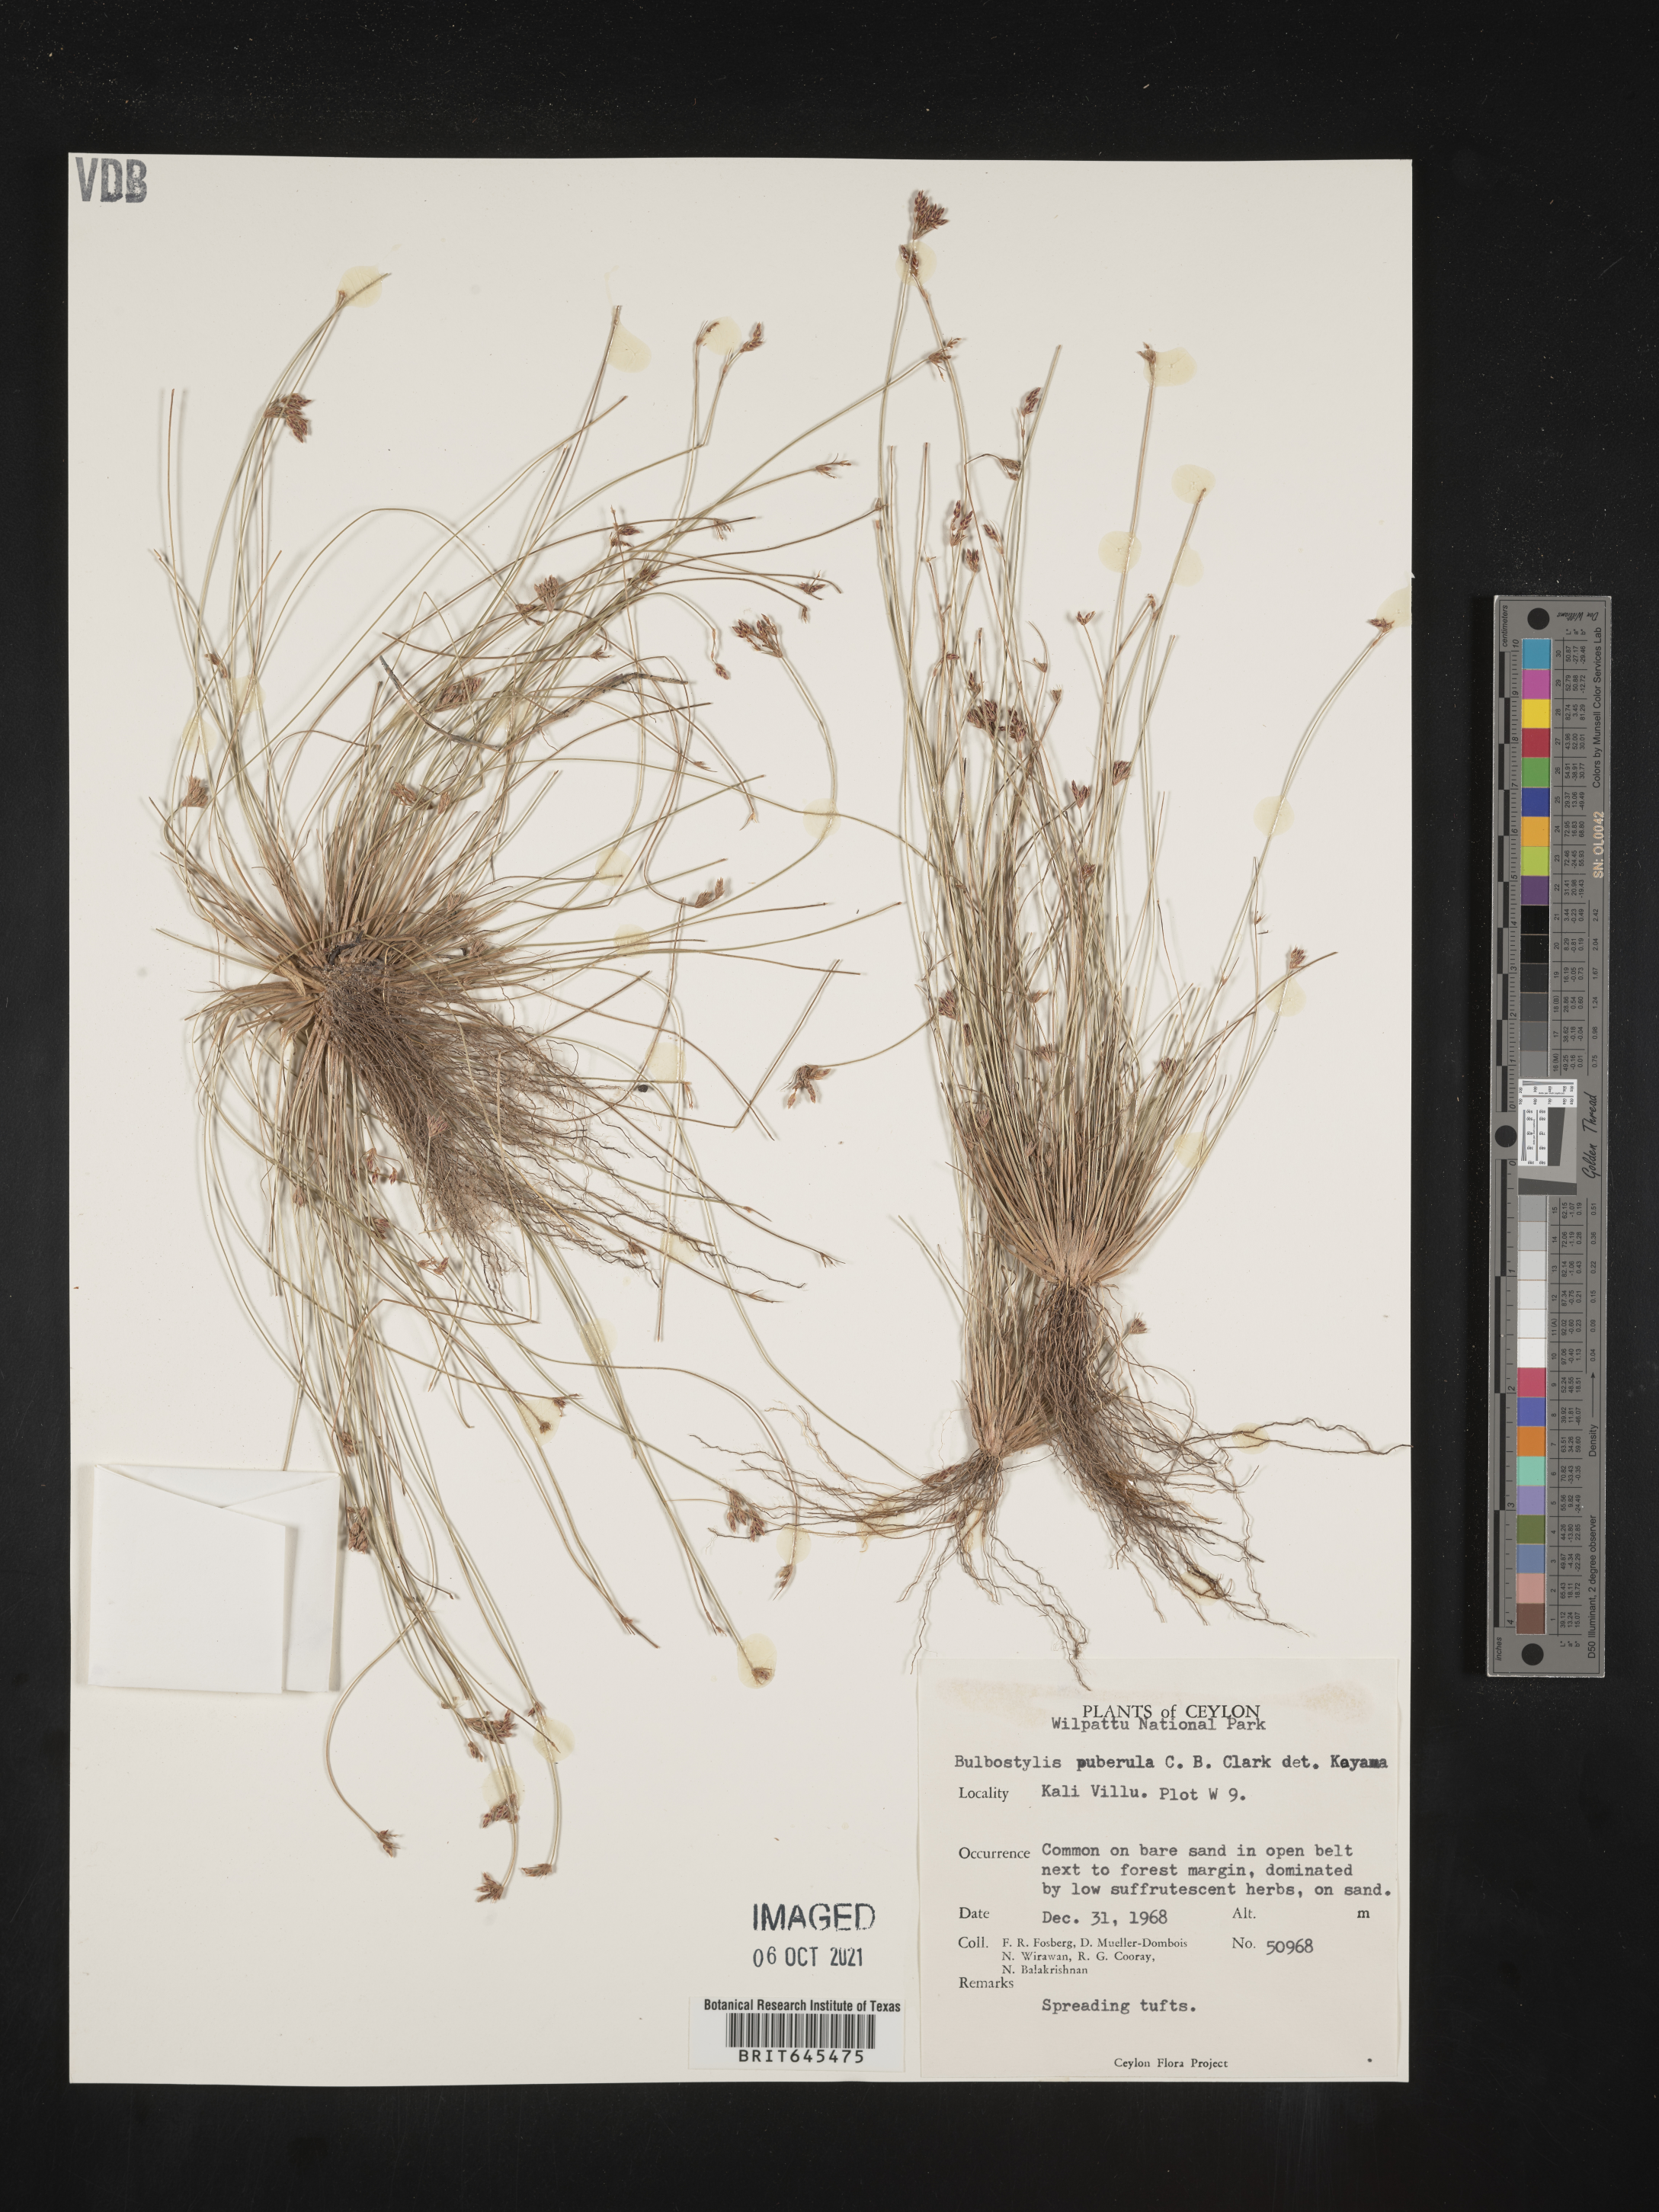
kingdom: Plantae
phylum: Tracheophyta
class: Liliopsida
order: Poales
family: Cyperaceae
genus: Bulbostylis
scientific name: Bulbostylis thouarsii
